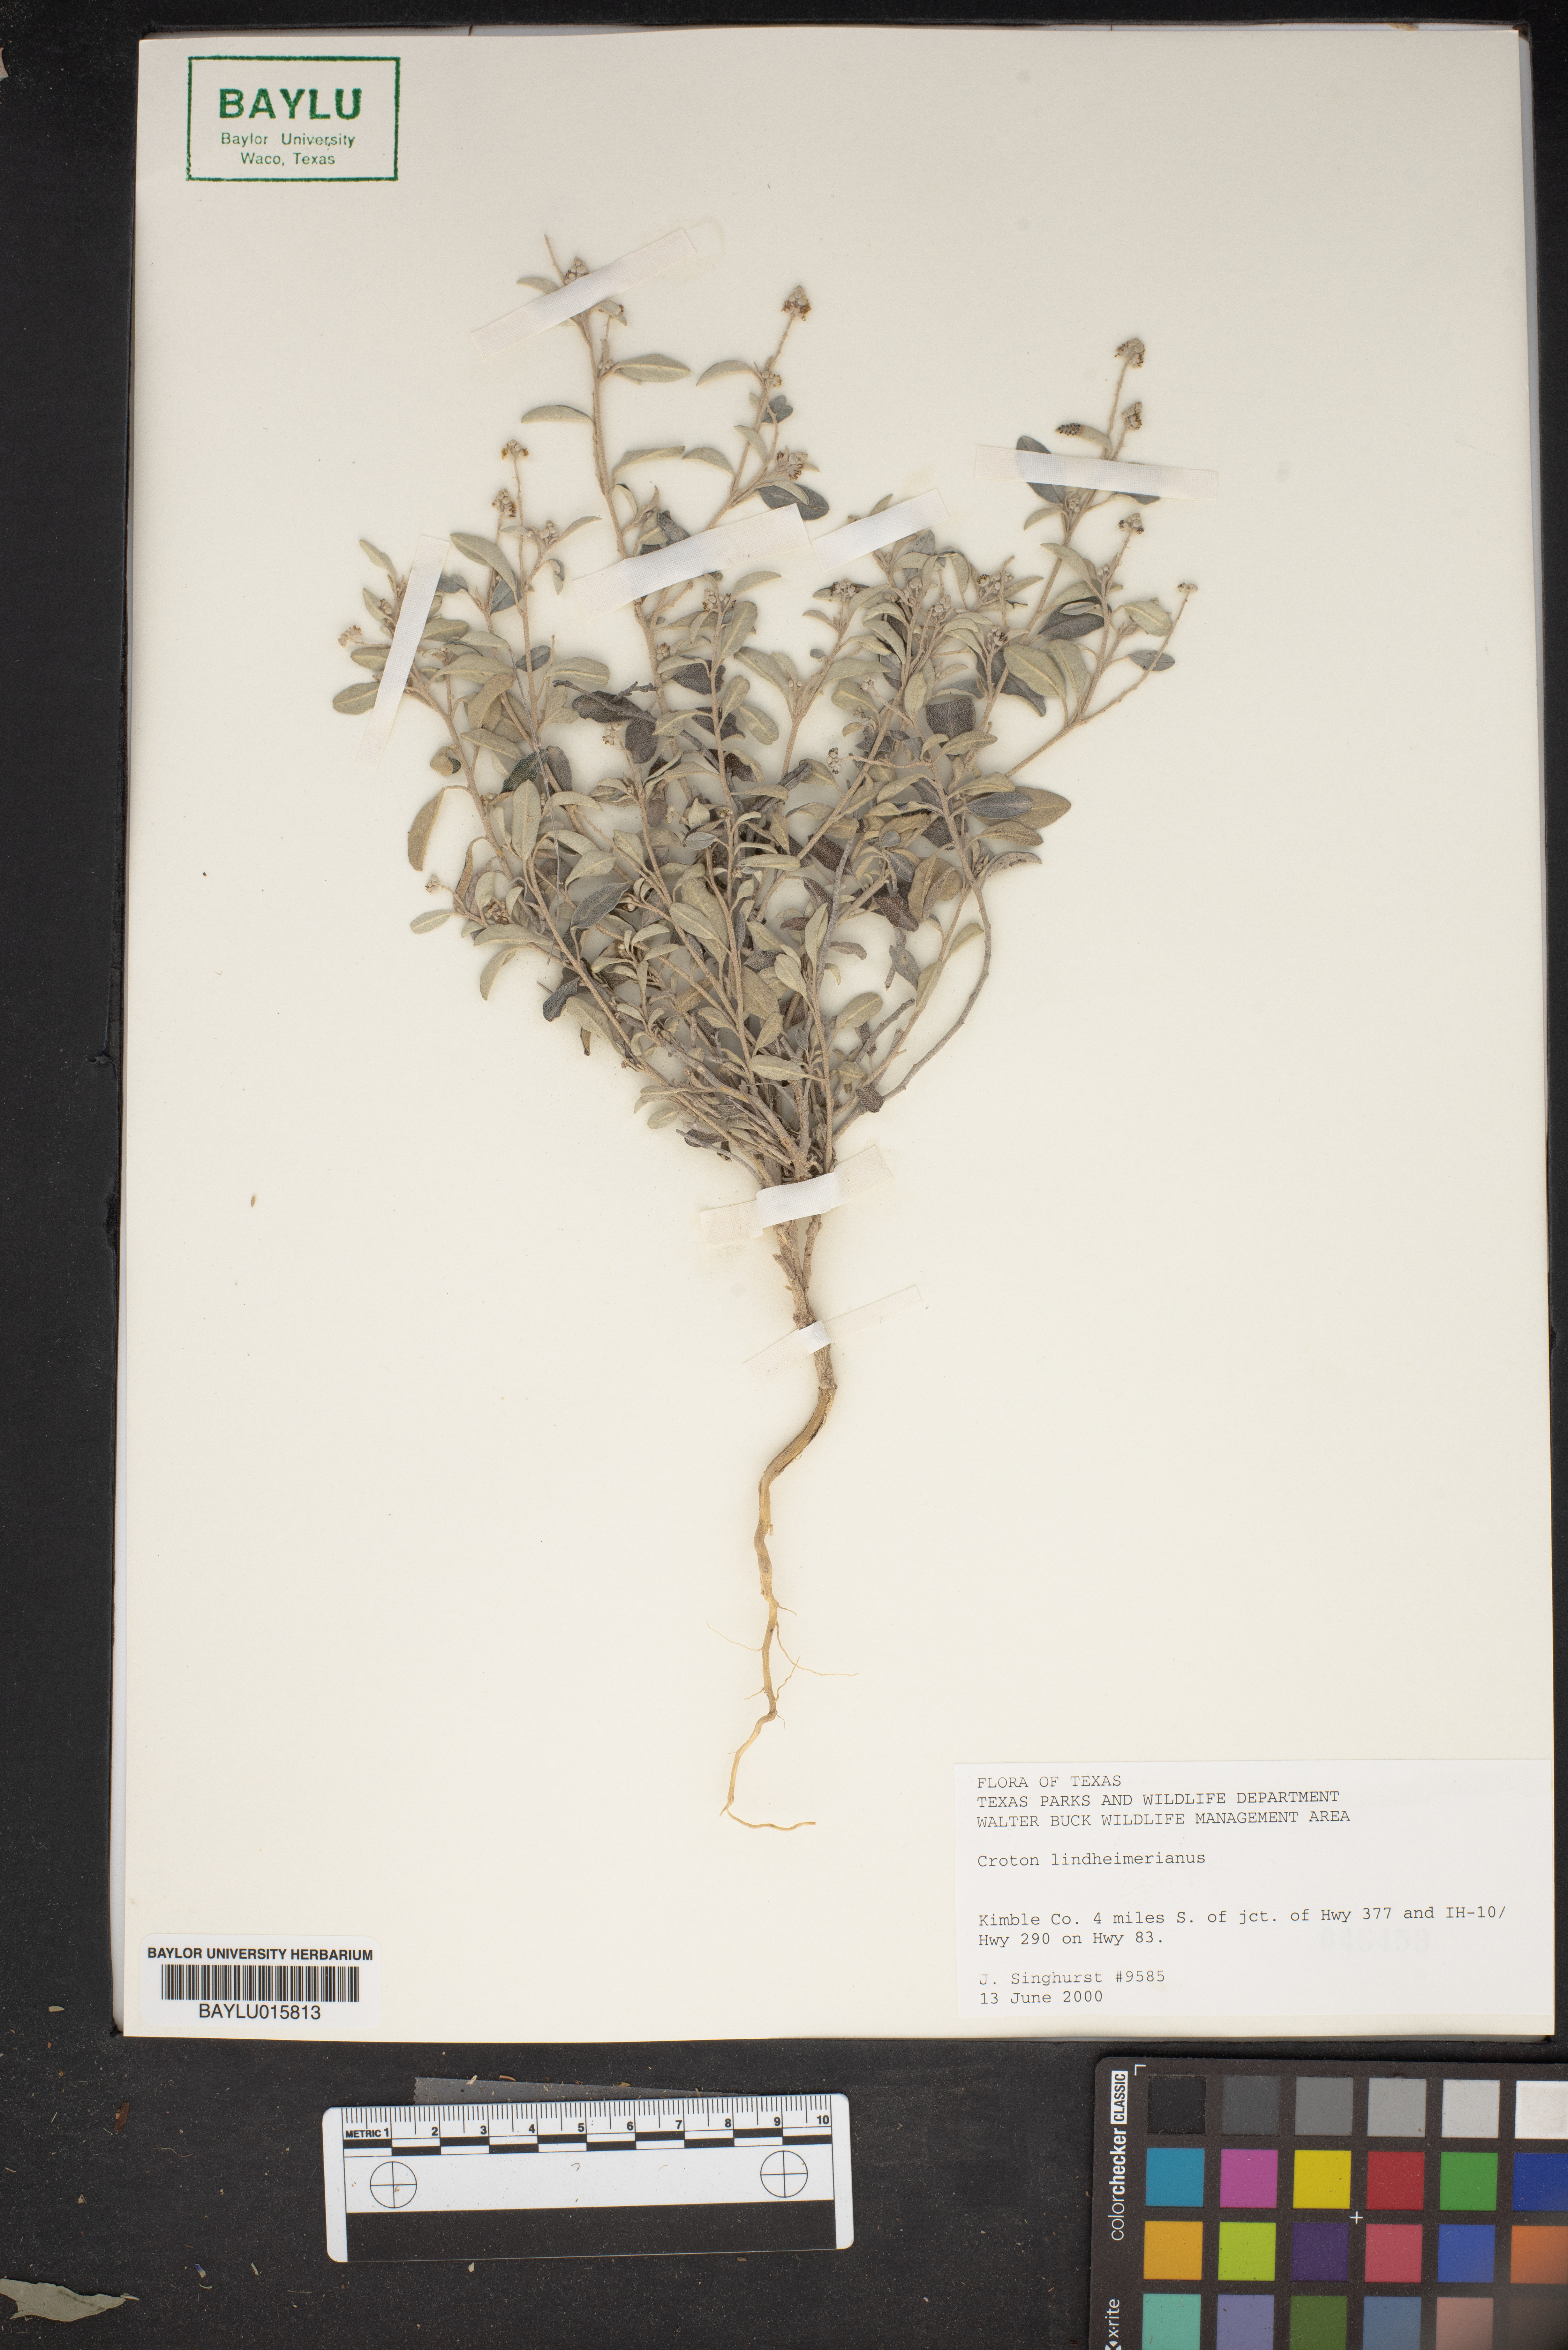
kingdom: Plantae
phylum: Tracheophyta
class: Magnoliopsida
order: Malpighiales
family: Euphorbiaceae
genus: Croton
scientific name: Croton lindheimerianus
